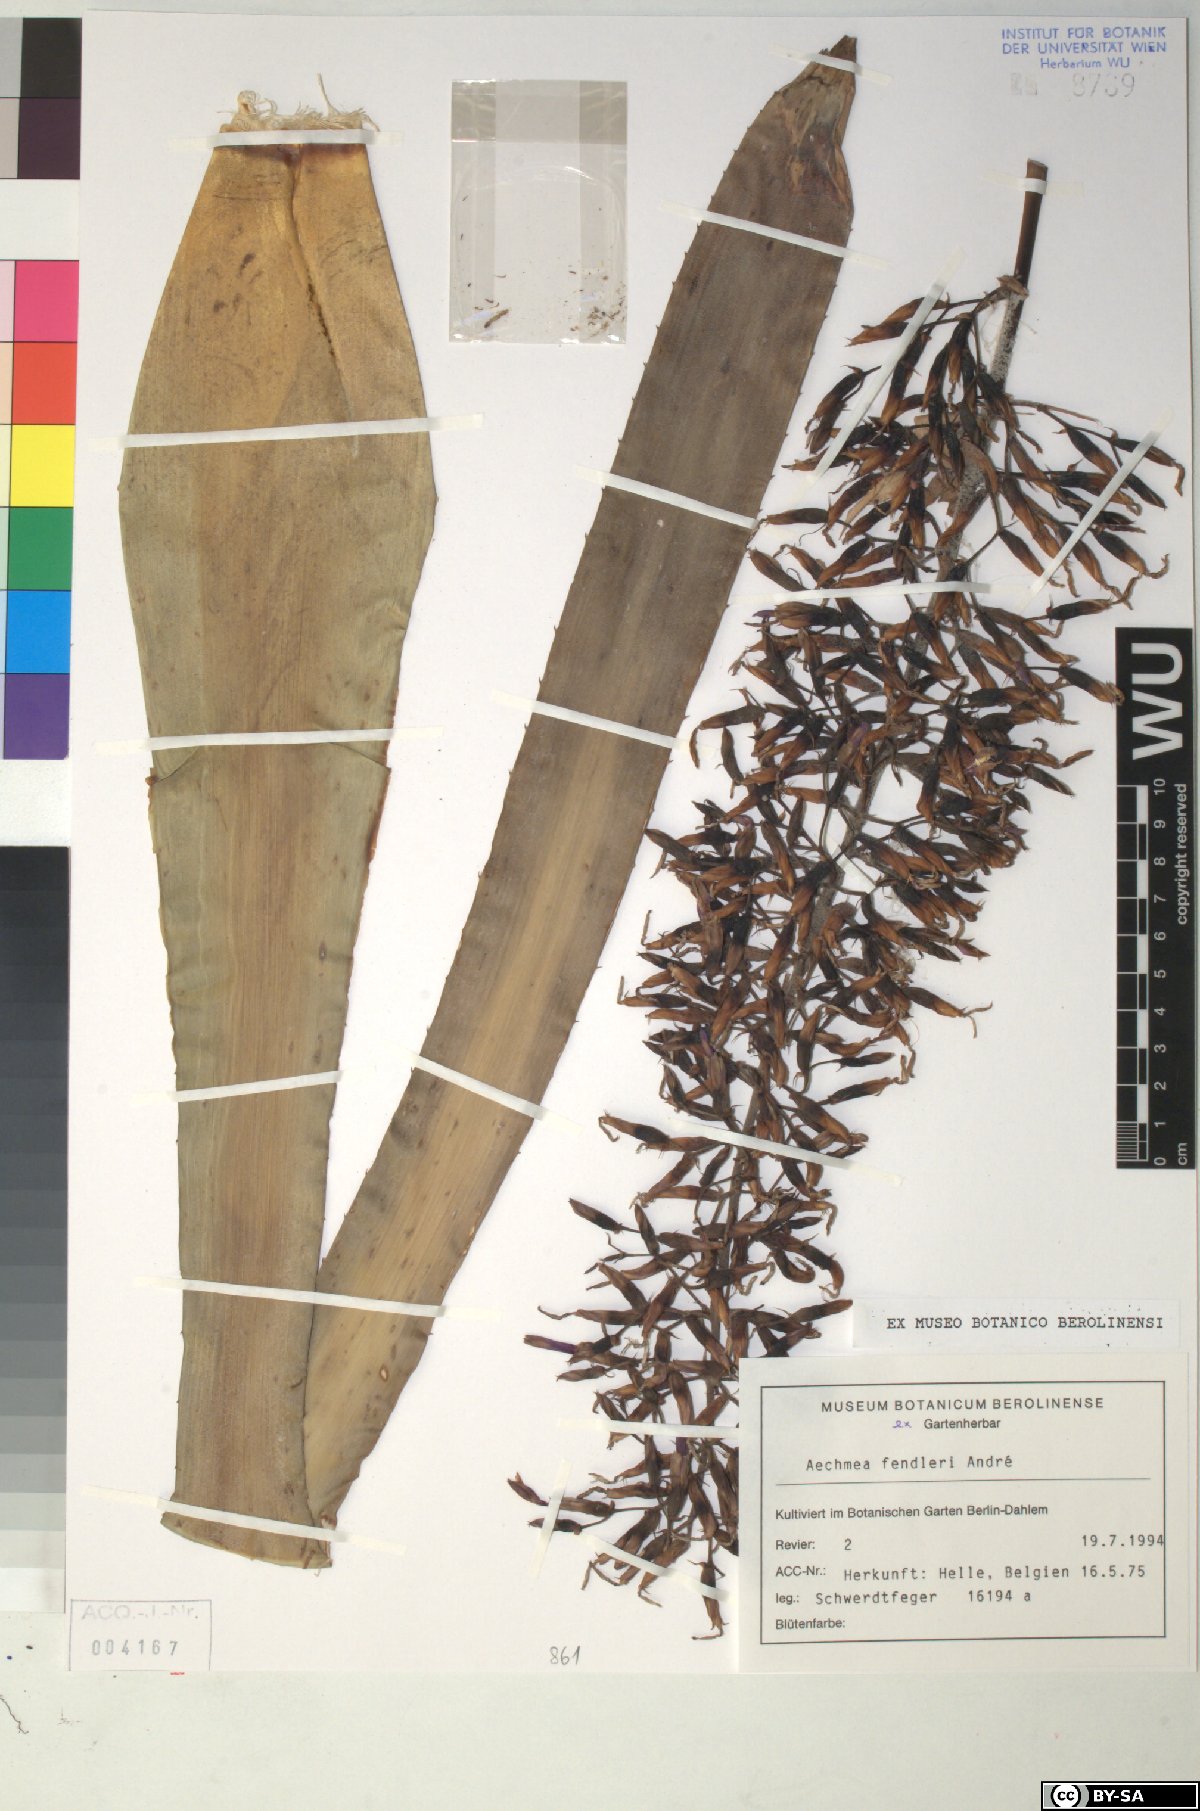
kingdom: Plantae
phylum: Tracheophyta
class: Liliopsida
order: Poales
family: Bromeliaceae
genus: Aechmea
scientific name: Aechmea fendleri
